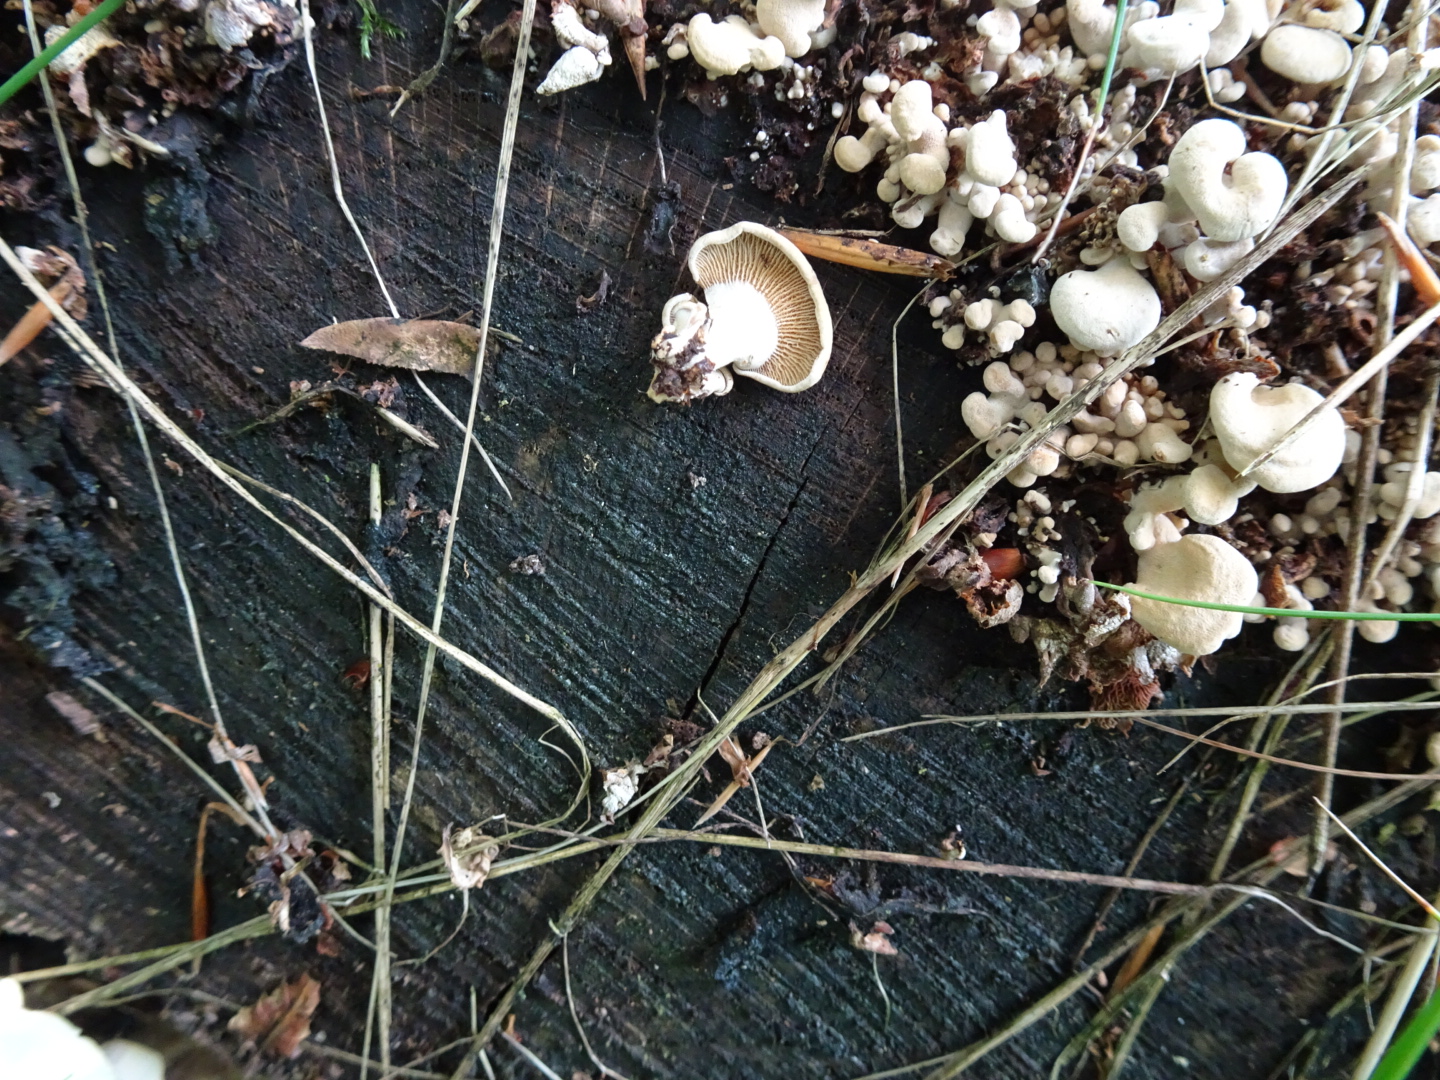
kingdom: Fungi
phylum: Basidiomycota
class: Agaricomycetes
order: Agaricales
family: Mycenaceae
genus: Panellus
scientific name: Panellus stipticus
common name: kliddet epaulethat
